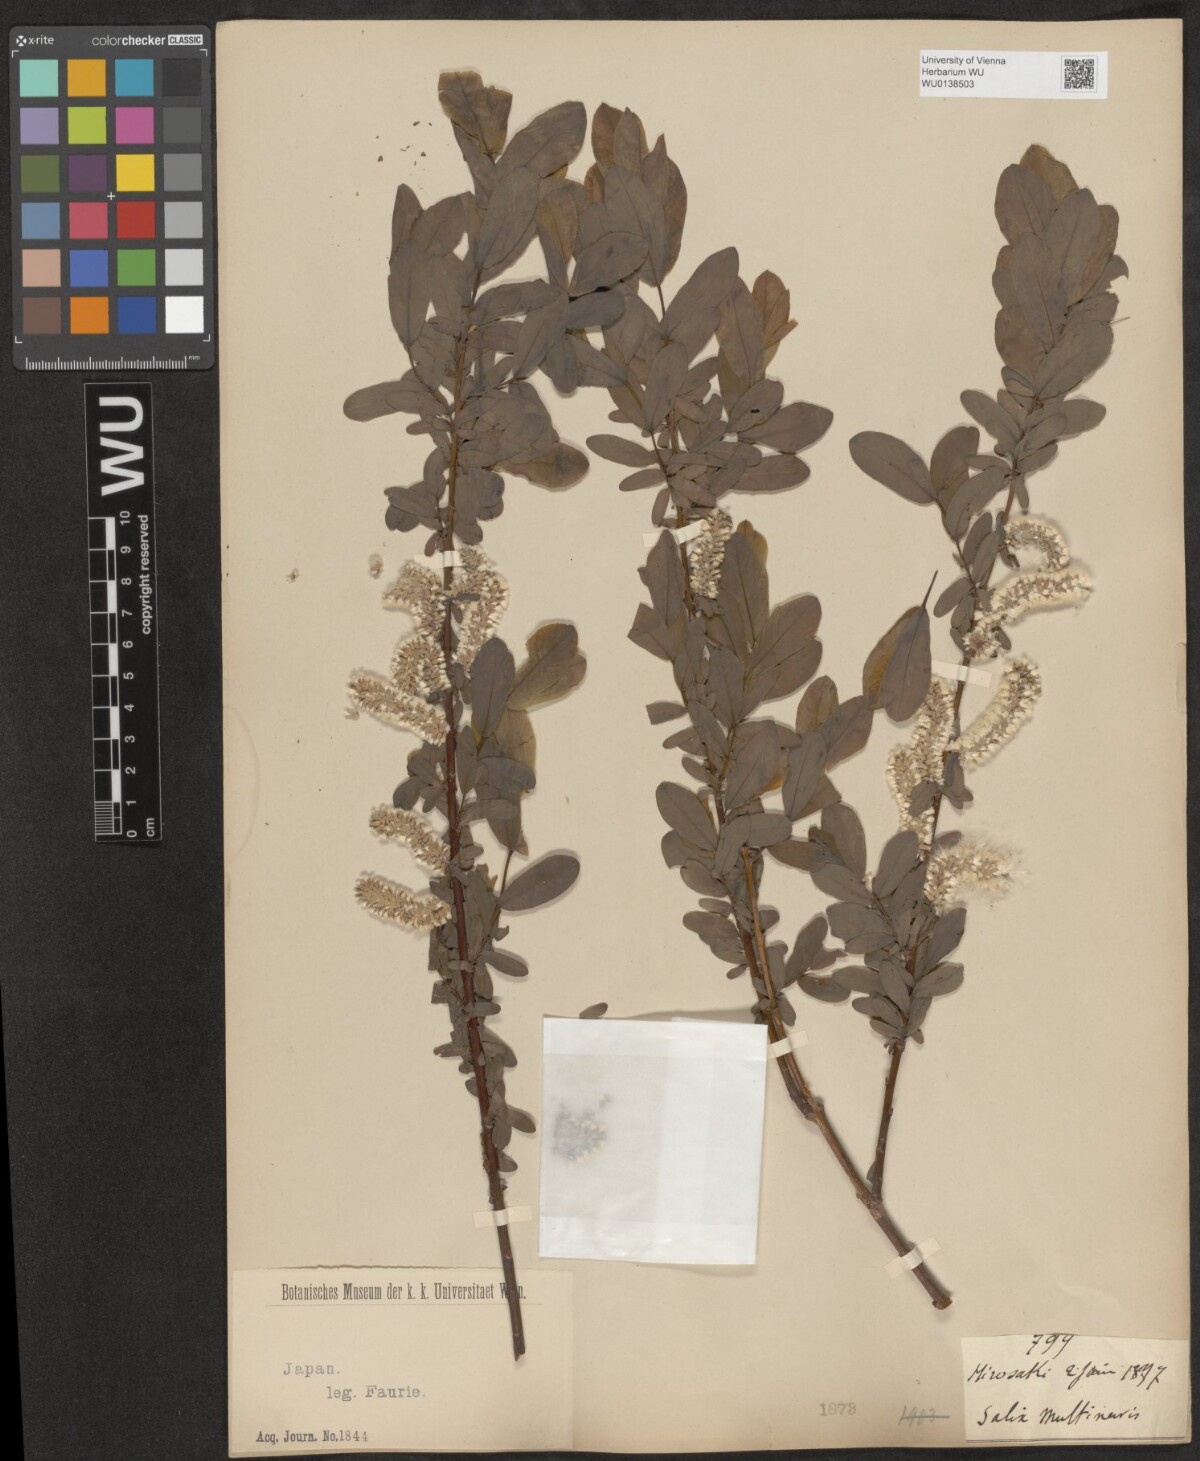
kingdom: Plantae
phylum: Tracheophyta
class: Magnoliopsida
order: Malpighiales
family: Salicaceae
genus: Salix
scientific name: Salix multinervis
